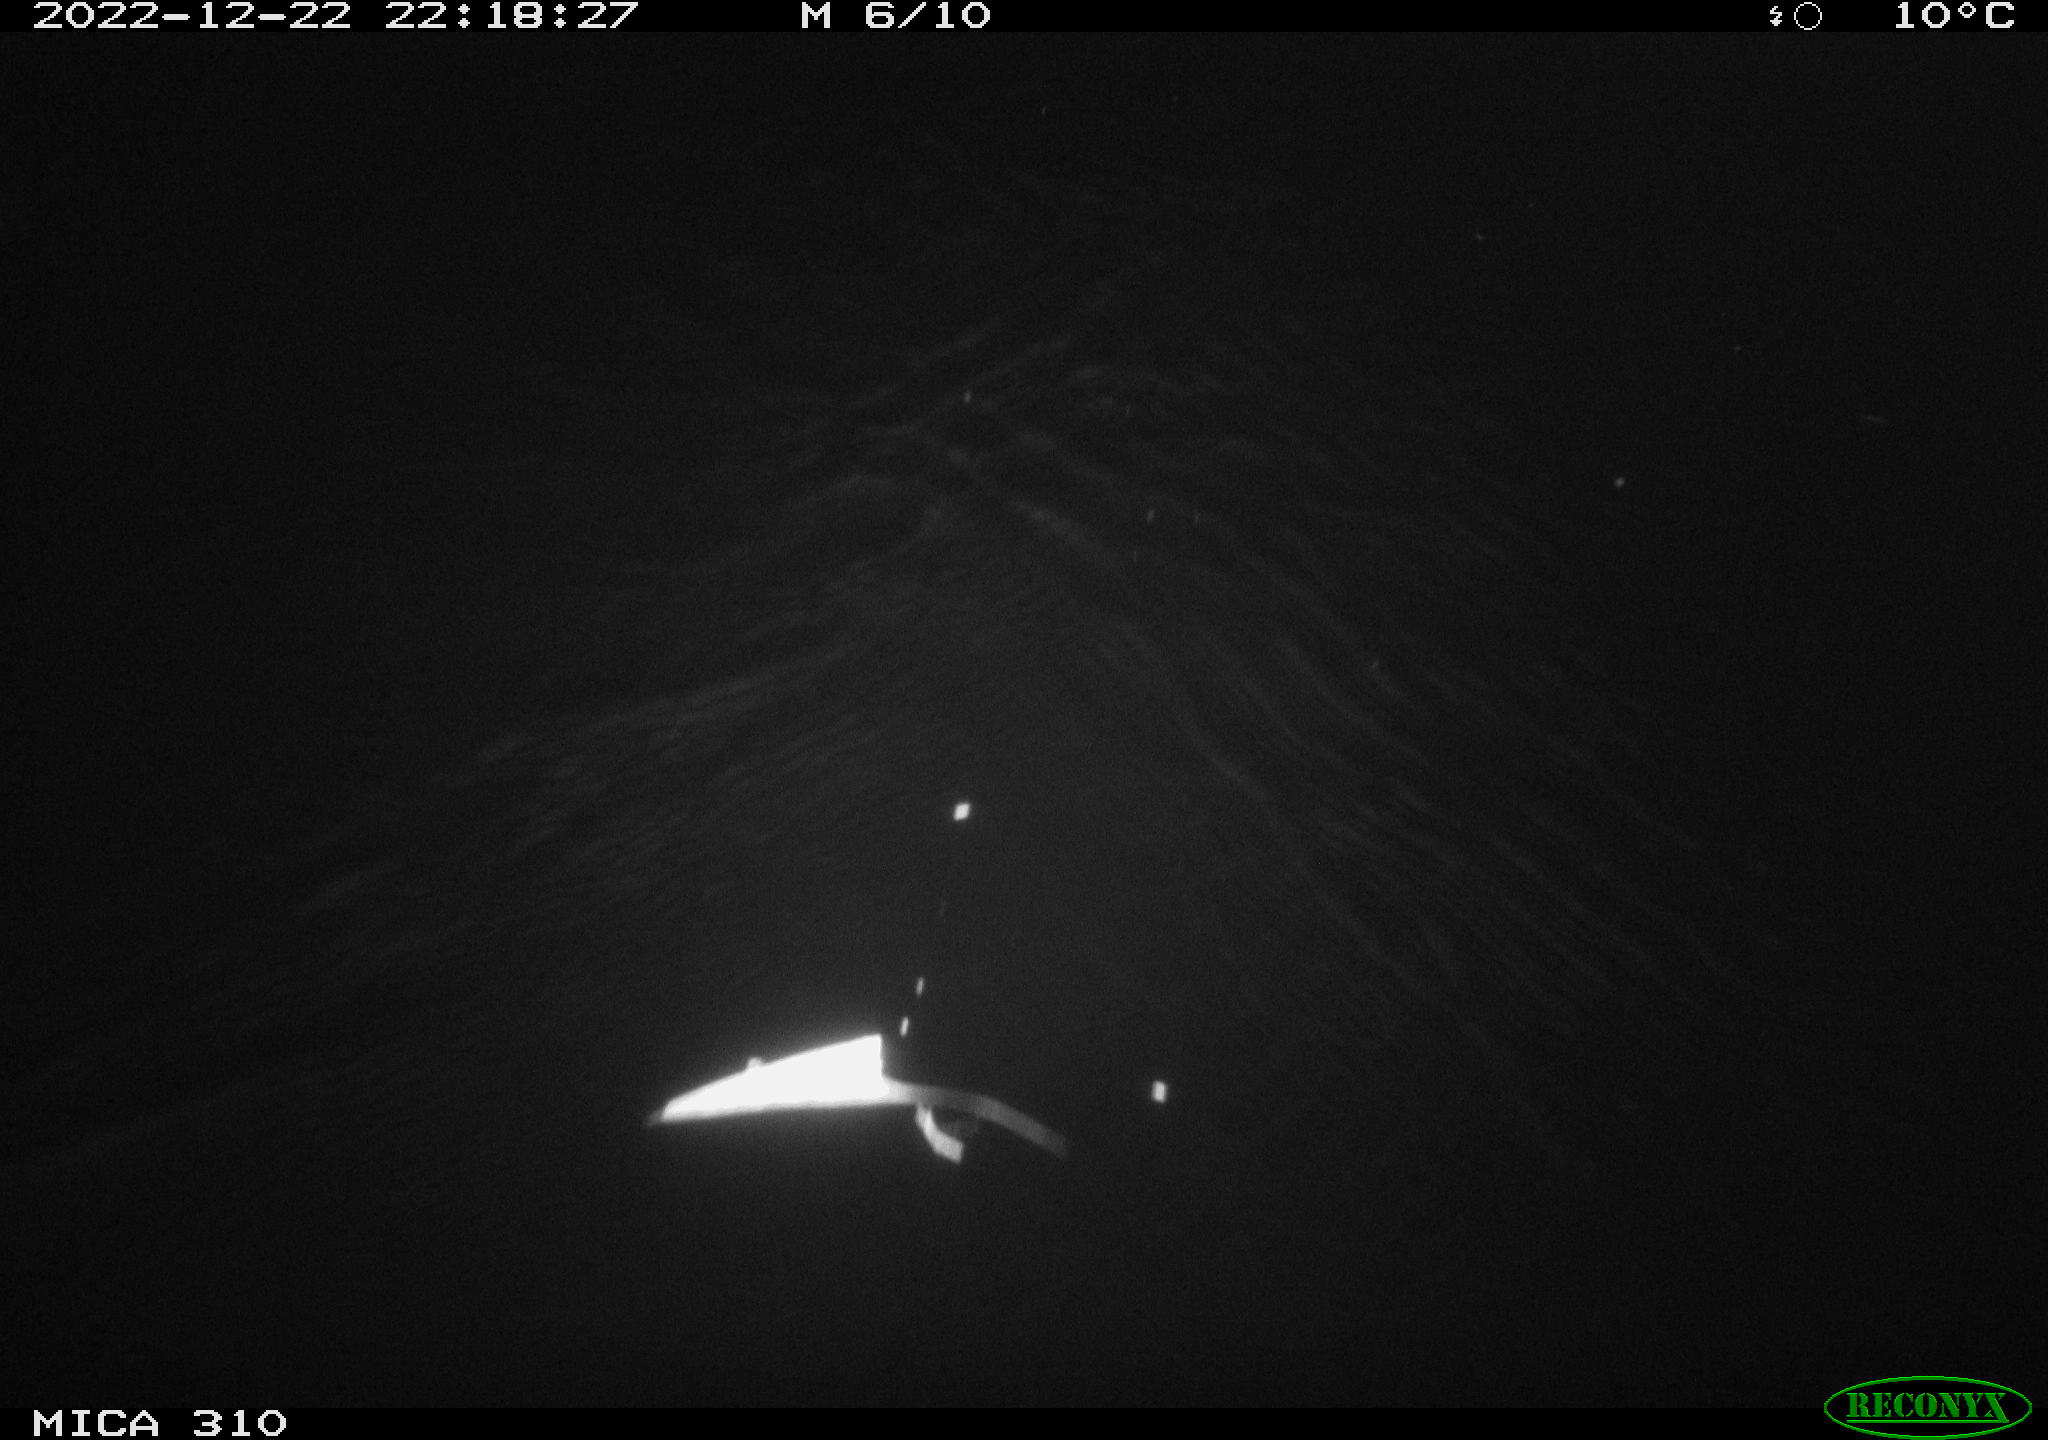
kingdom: Animalia
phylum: Chordata
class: Mammalia
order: Rodentia
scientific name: Rodentia
